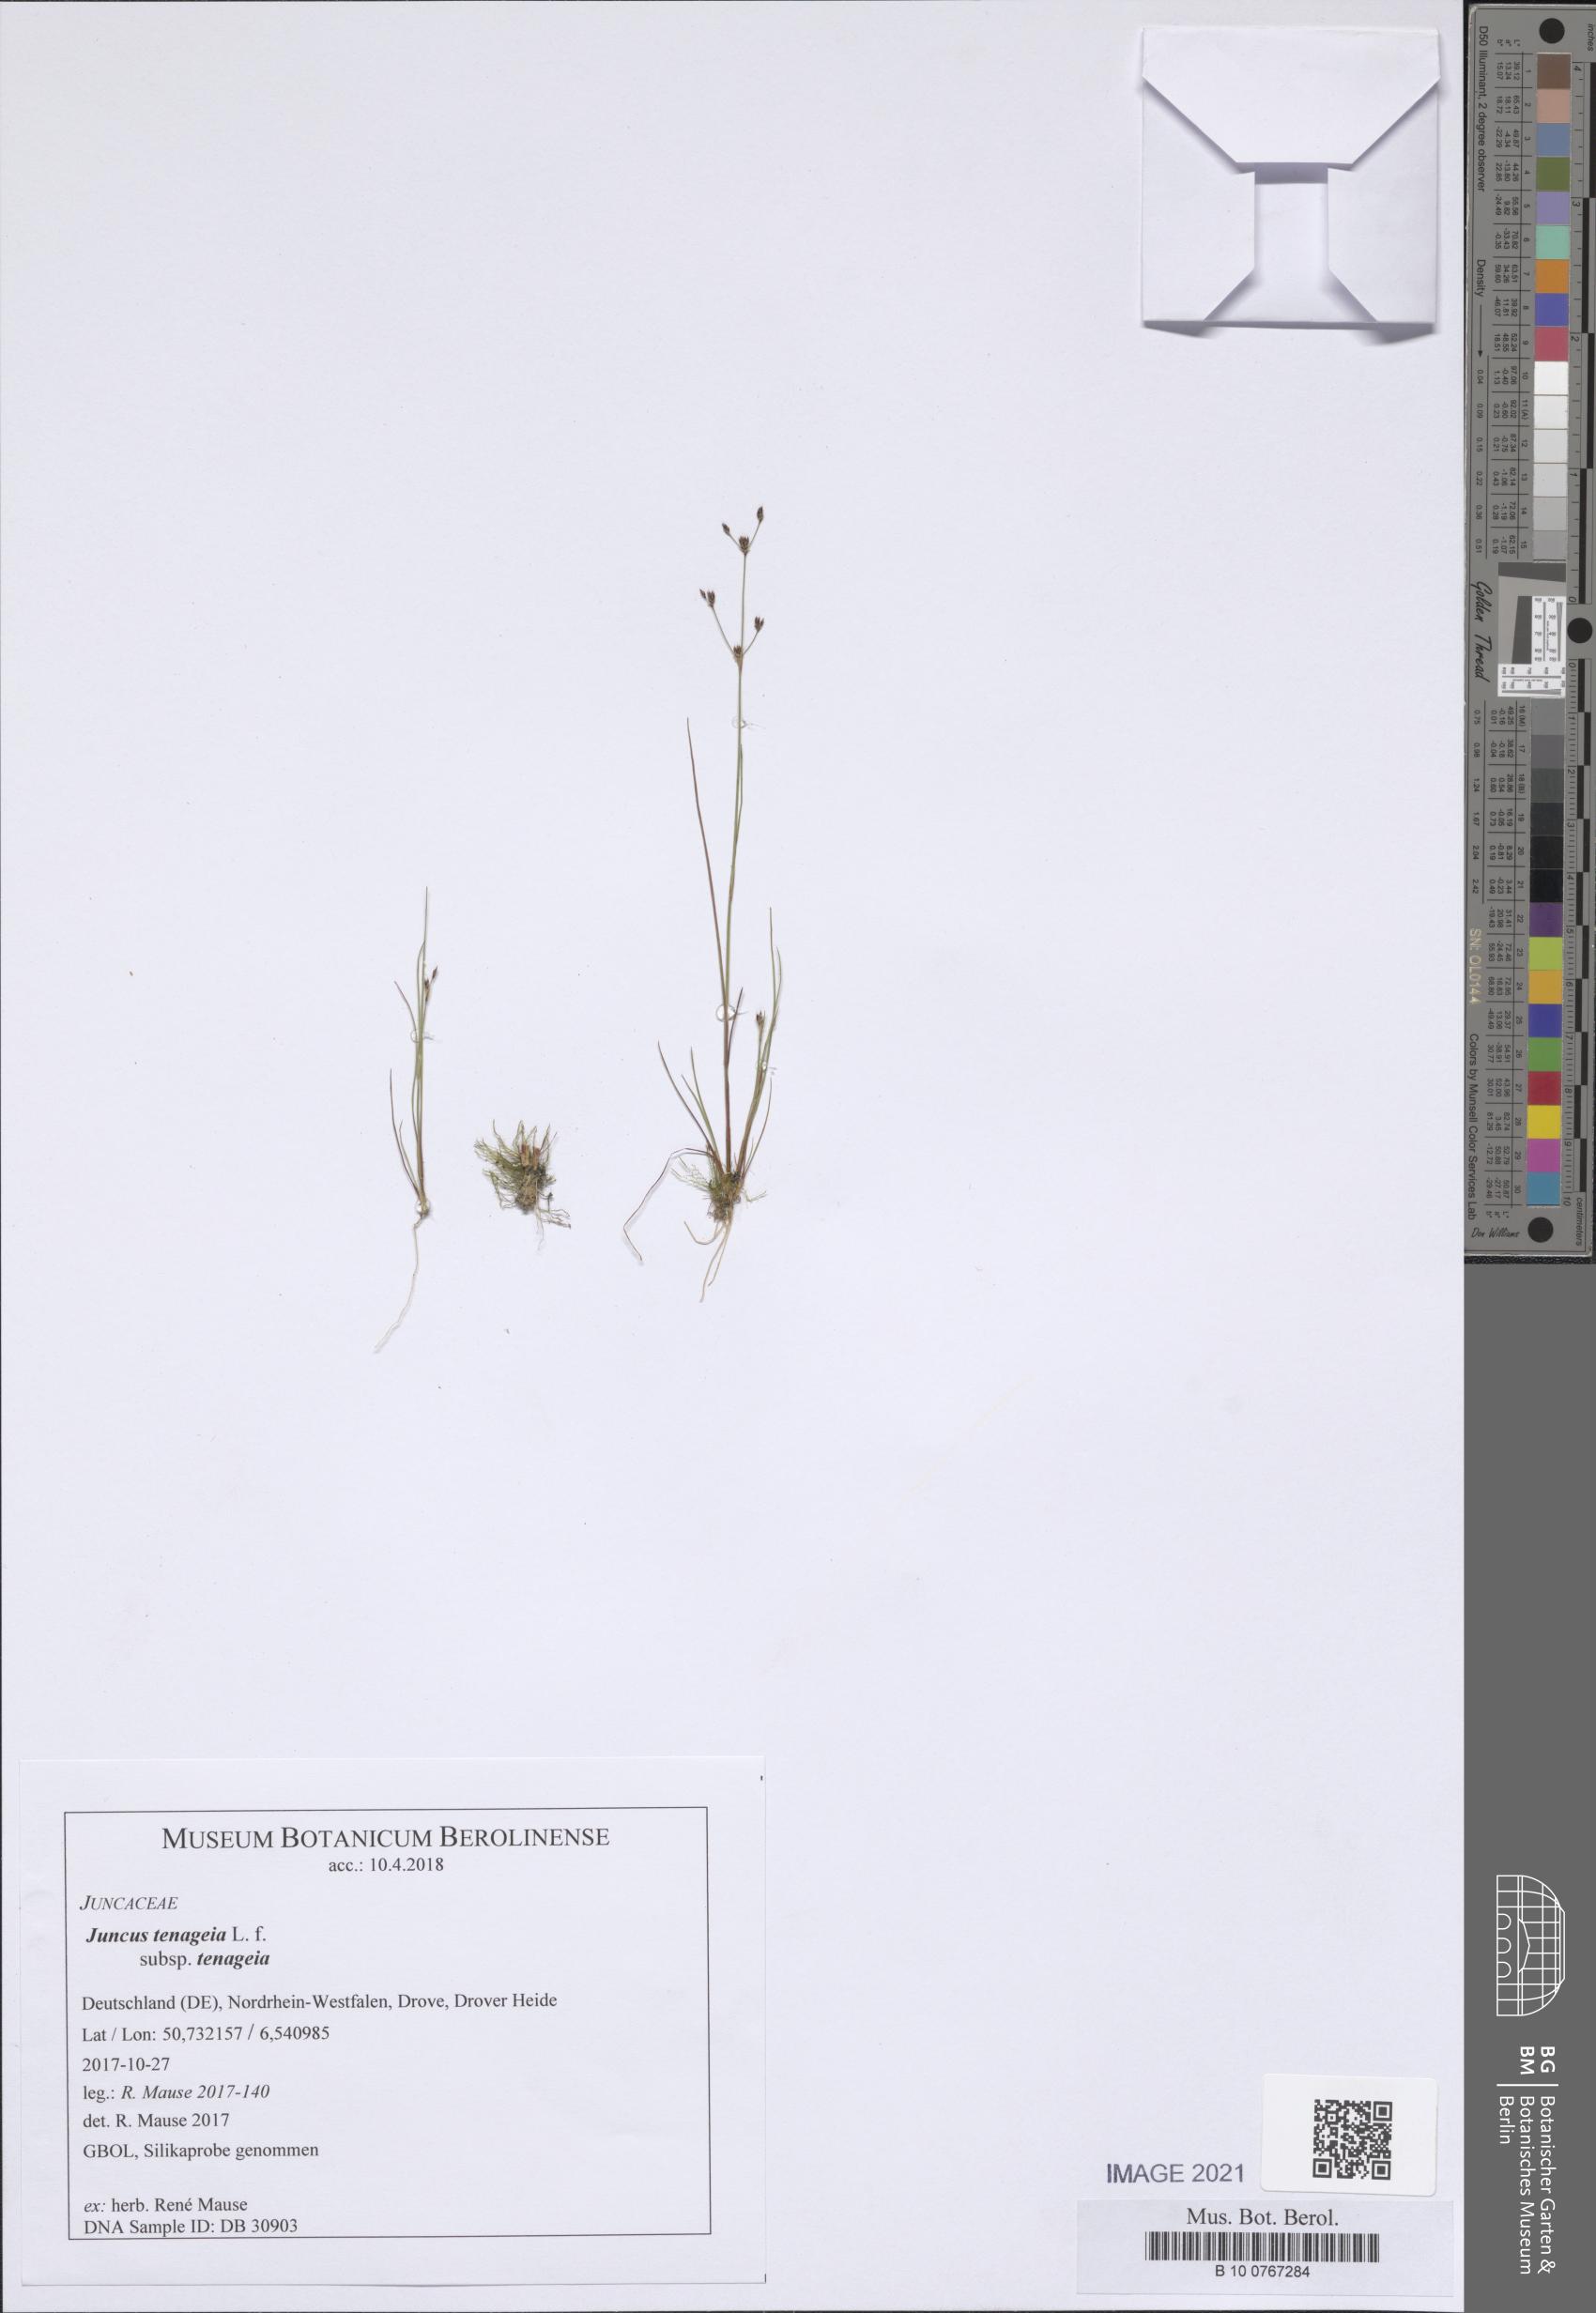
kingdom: Plantae
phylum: Tracheophyta
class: Liliopsida
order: Poales
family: Juncaceae
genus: Juncus
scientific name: Juncus tenageia
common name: Sand rush
